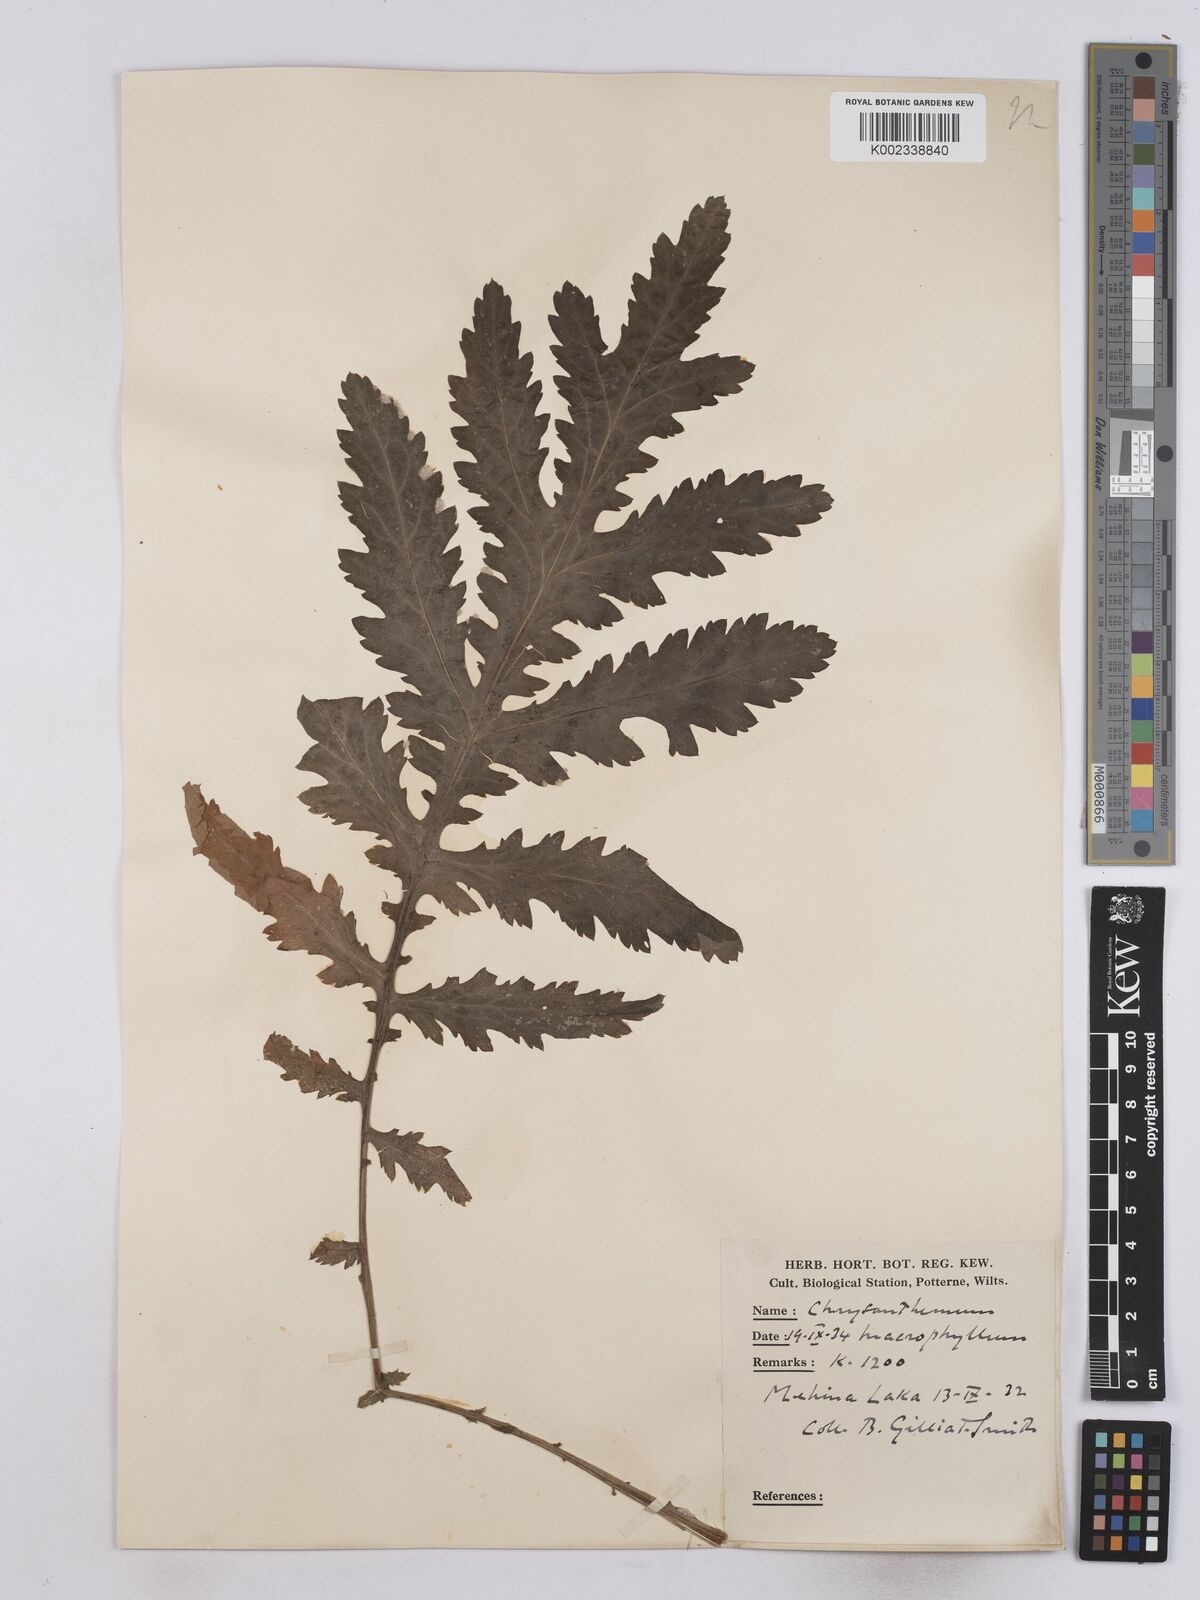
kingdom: Plantae
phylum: Tracheophyta
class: Magnoliopsida
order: Asterales
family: Asteraceae
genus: Tanacetum
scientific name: Tanacetum macrophyllum
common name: Rayed tansy
